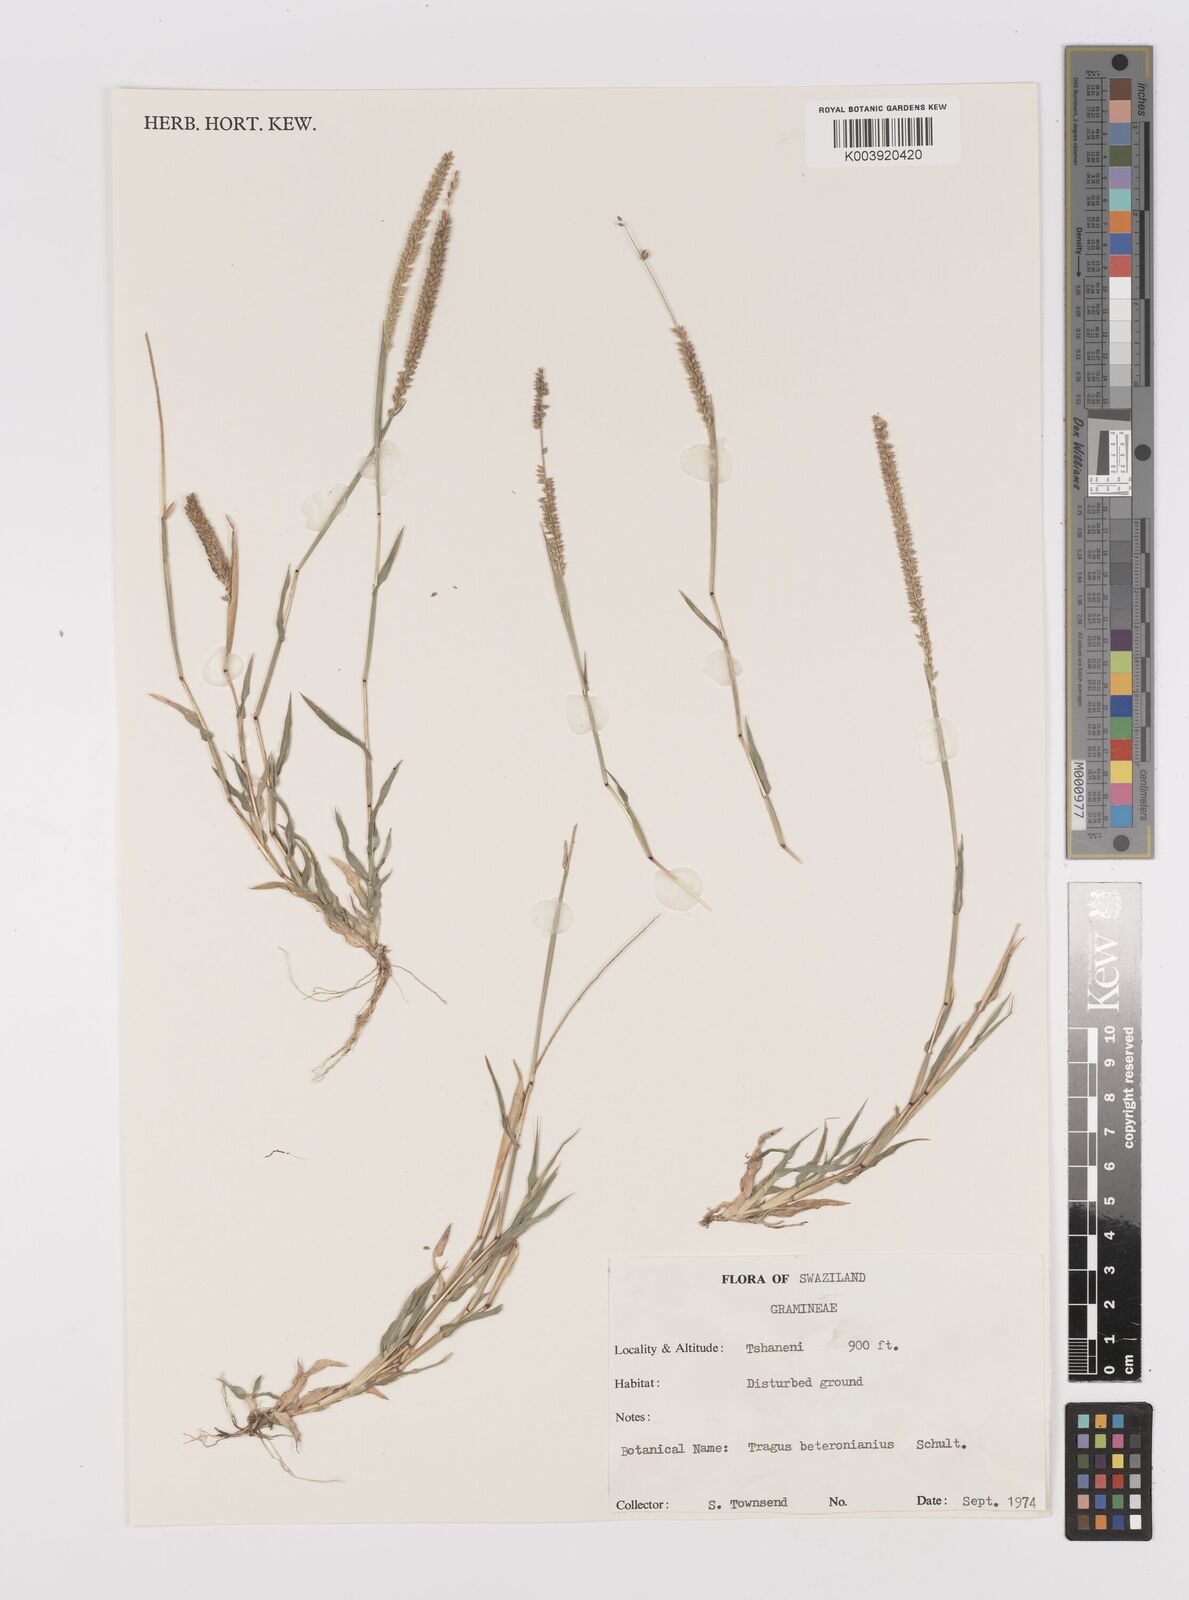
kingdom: Plantae
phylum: Tracheophyta
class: Liliopsida
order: Poales
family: Poaceae
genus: Tragus
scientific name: Tragus berteronianus
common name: African bur-grass
